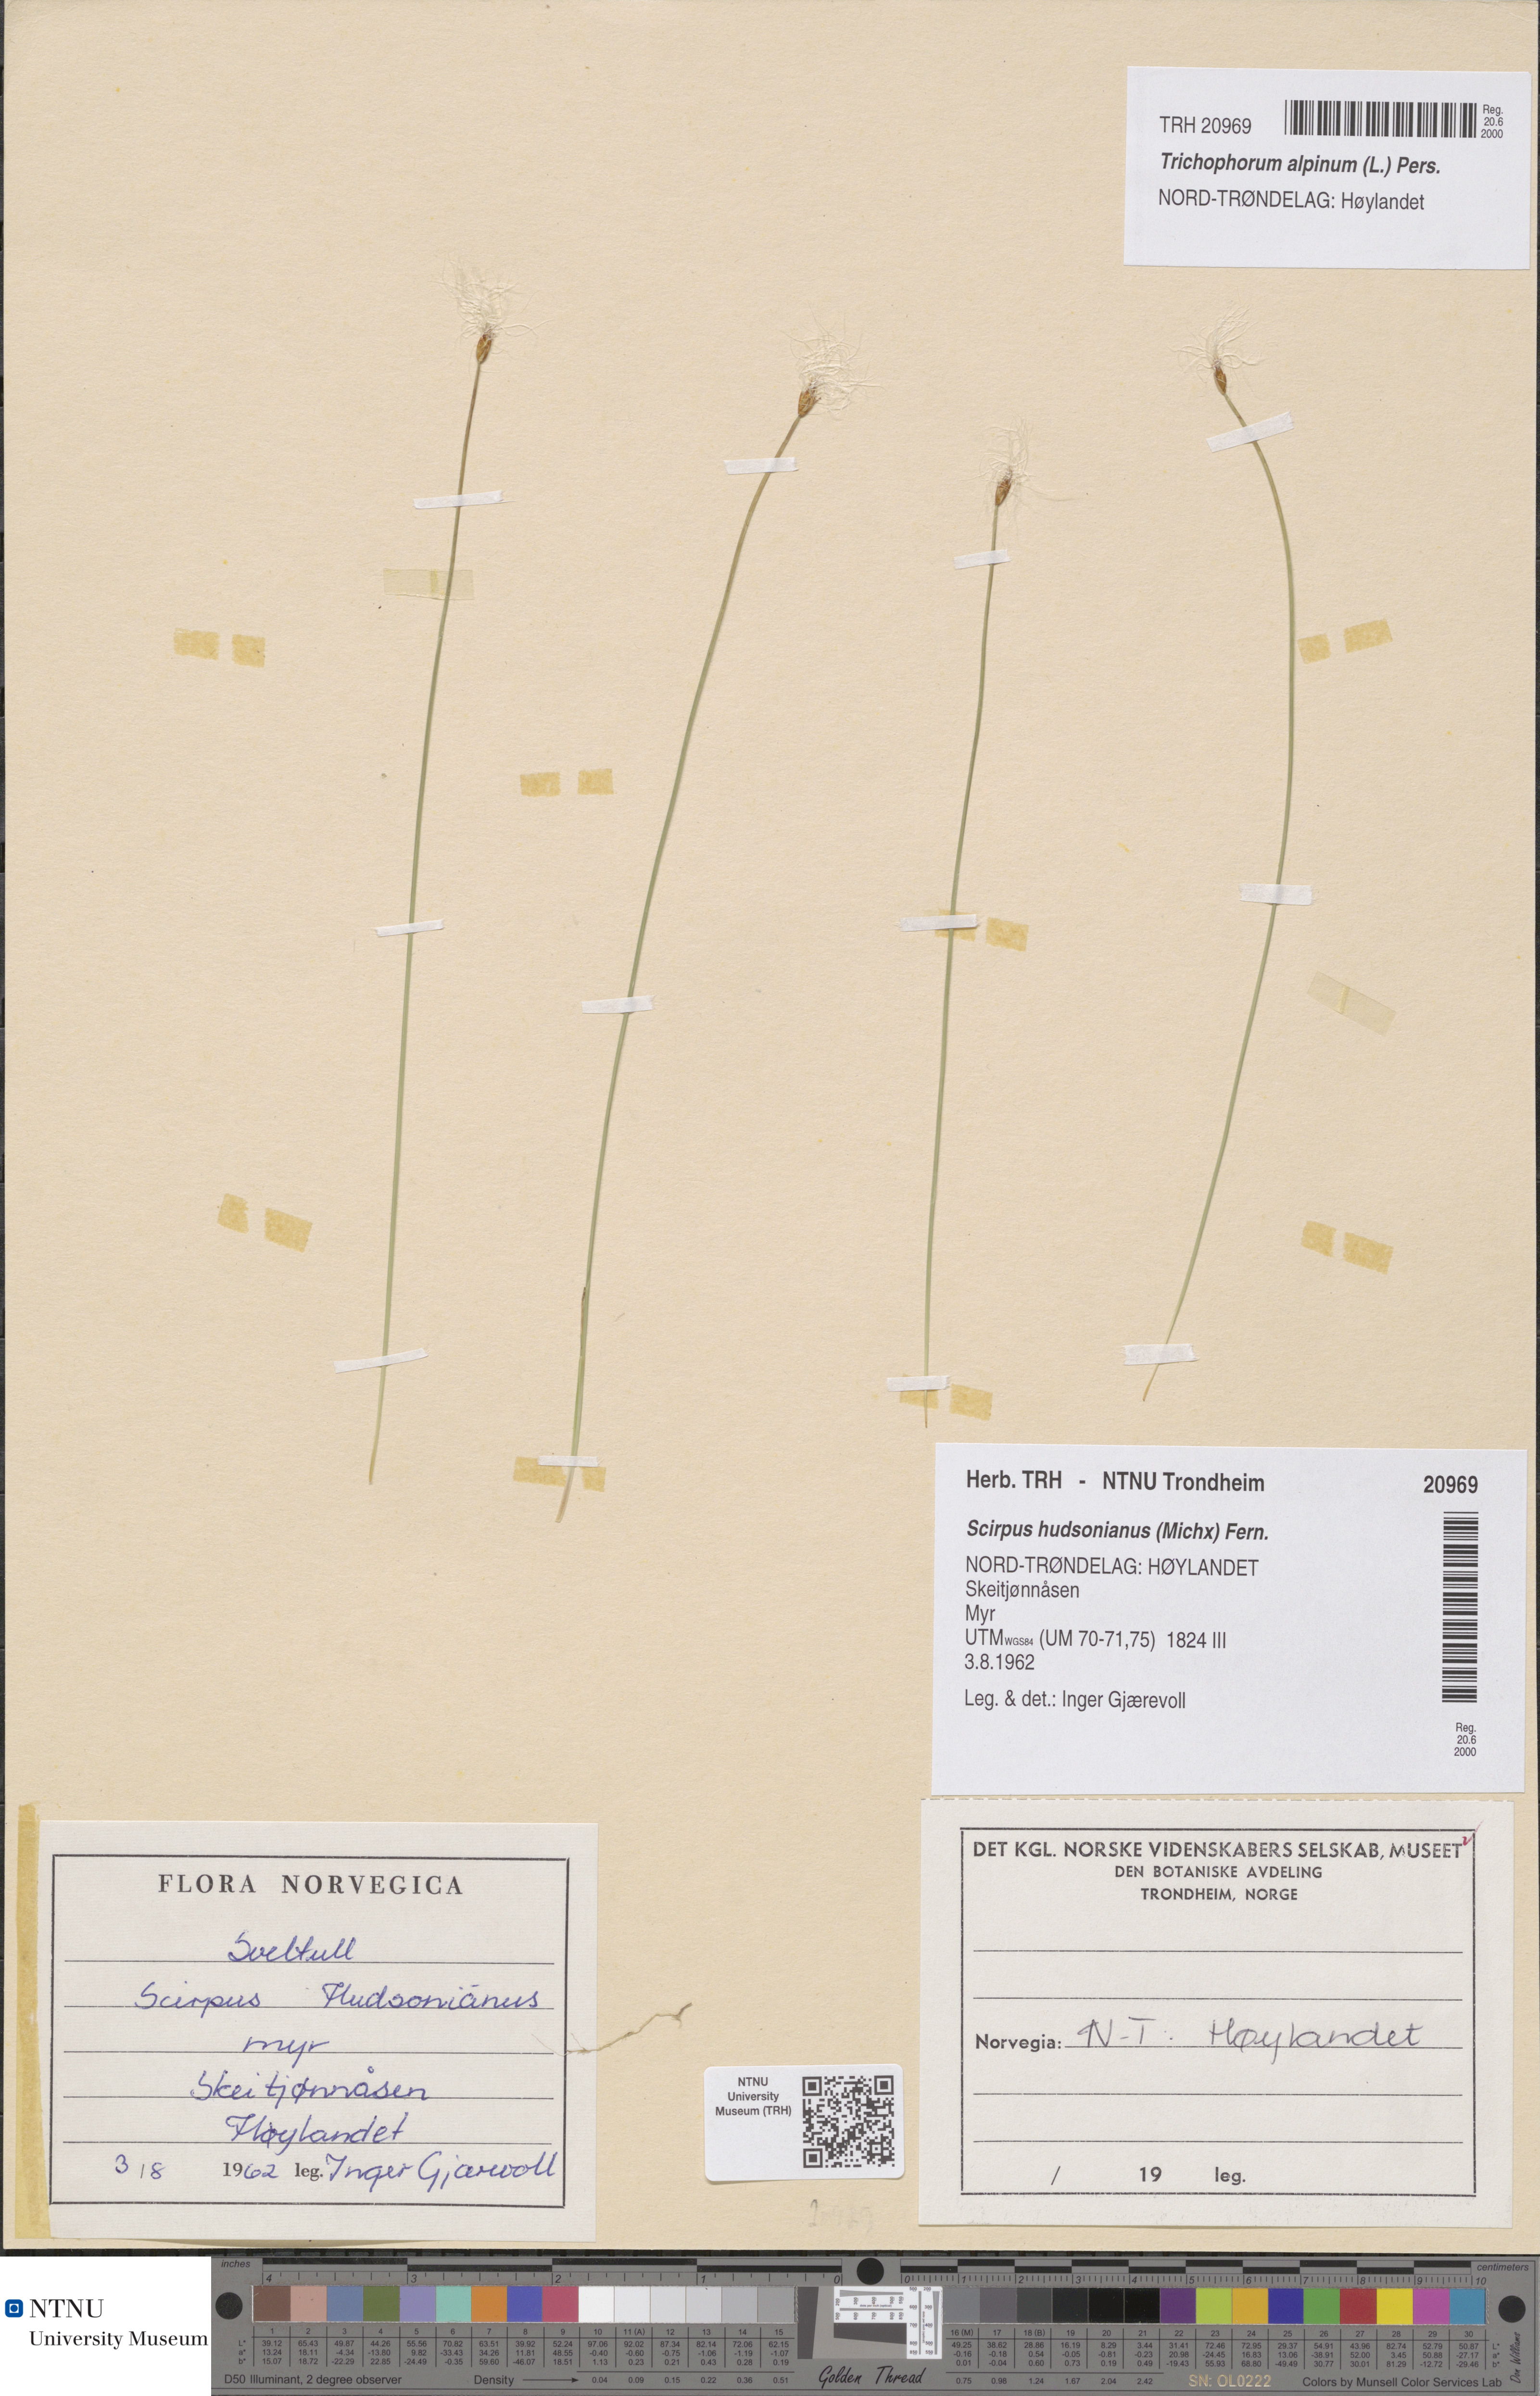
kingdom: Plantae
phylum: Tracheophyta
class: Liliopsida
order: Poales
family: Cyperaceae
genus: Trichophorum
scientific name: Trichophorum alpinum
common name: Alpine bulrush
